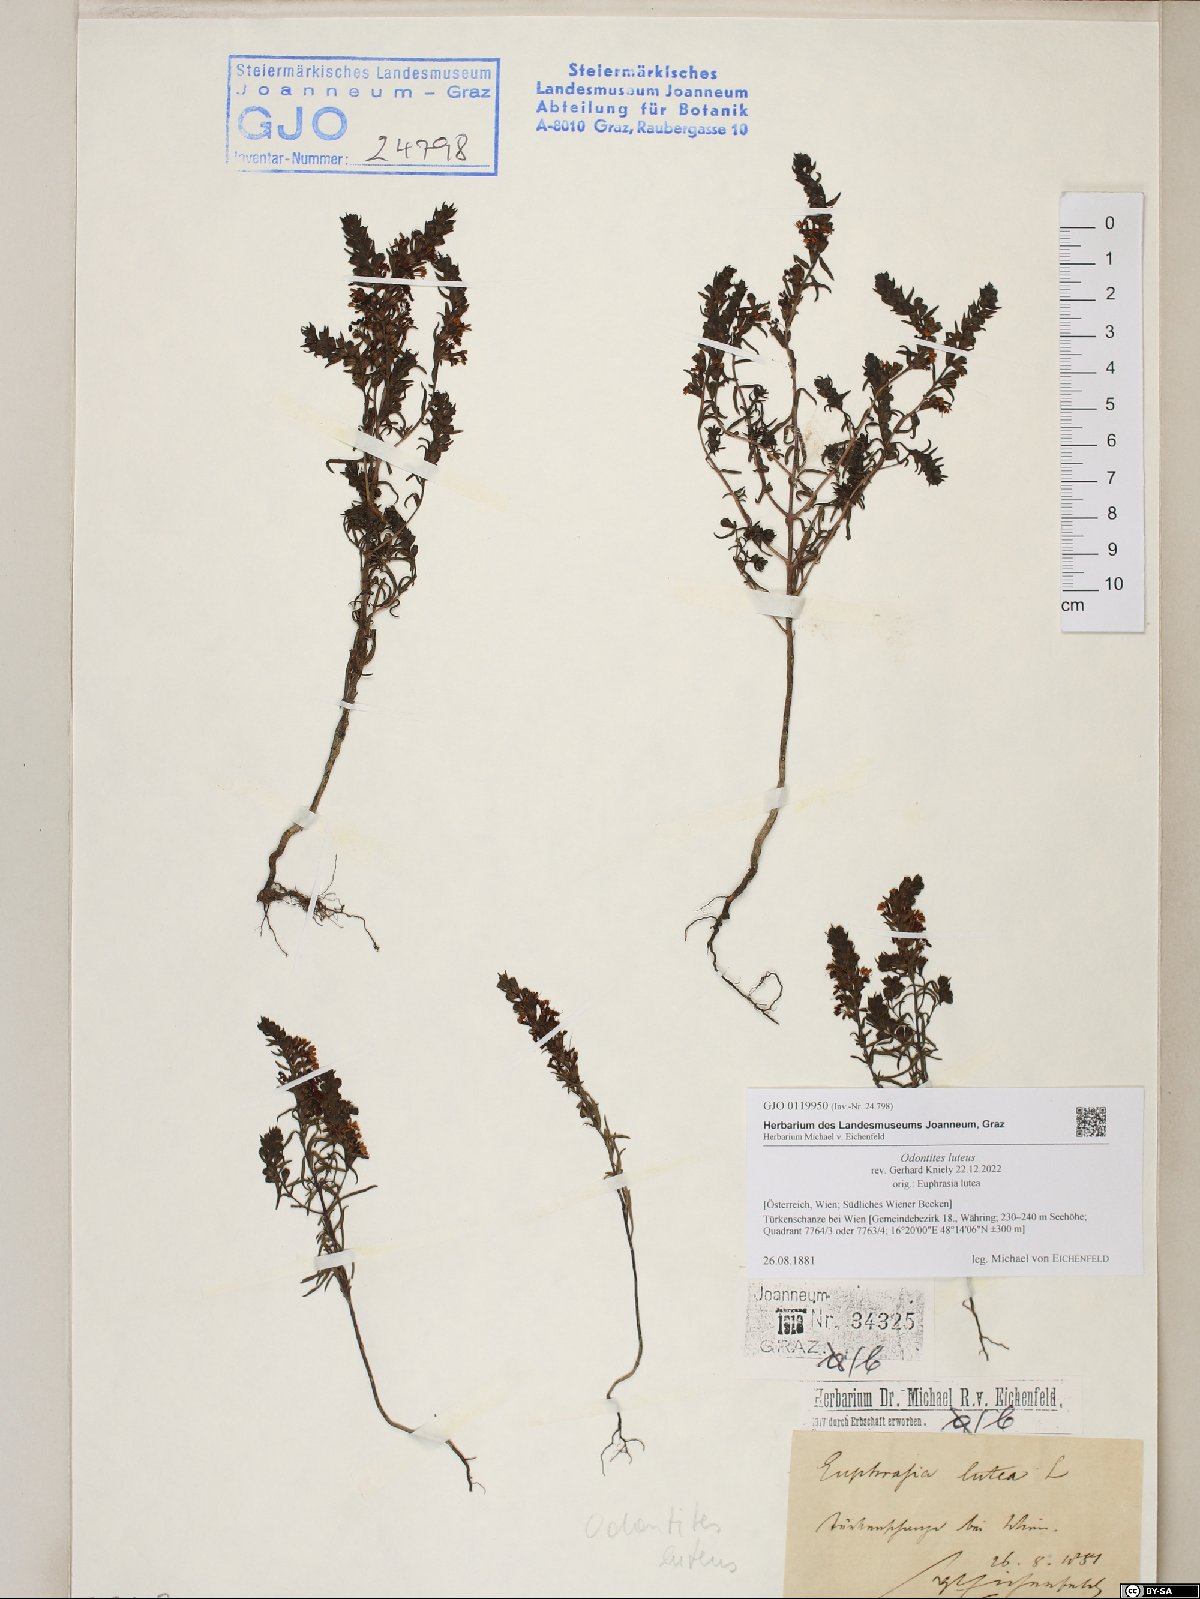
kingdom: Plantae
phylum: Tracheophyta
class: Magnoliopsida
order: Lamiales
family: Orobanchaceae
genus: Odontites
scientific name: Odontites luteus
